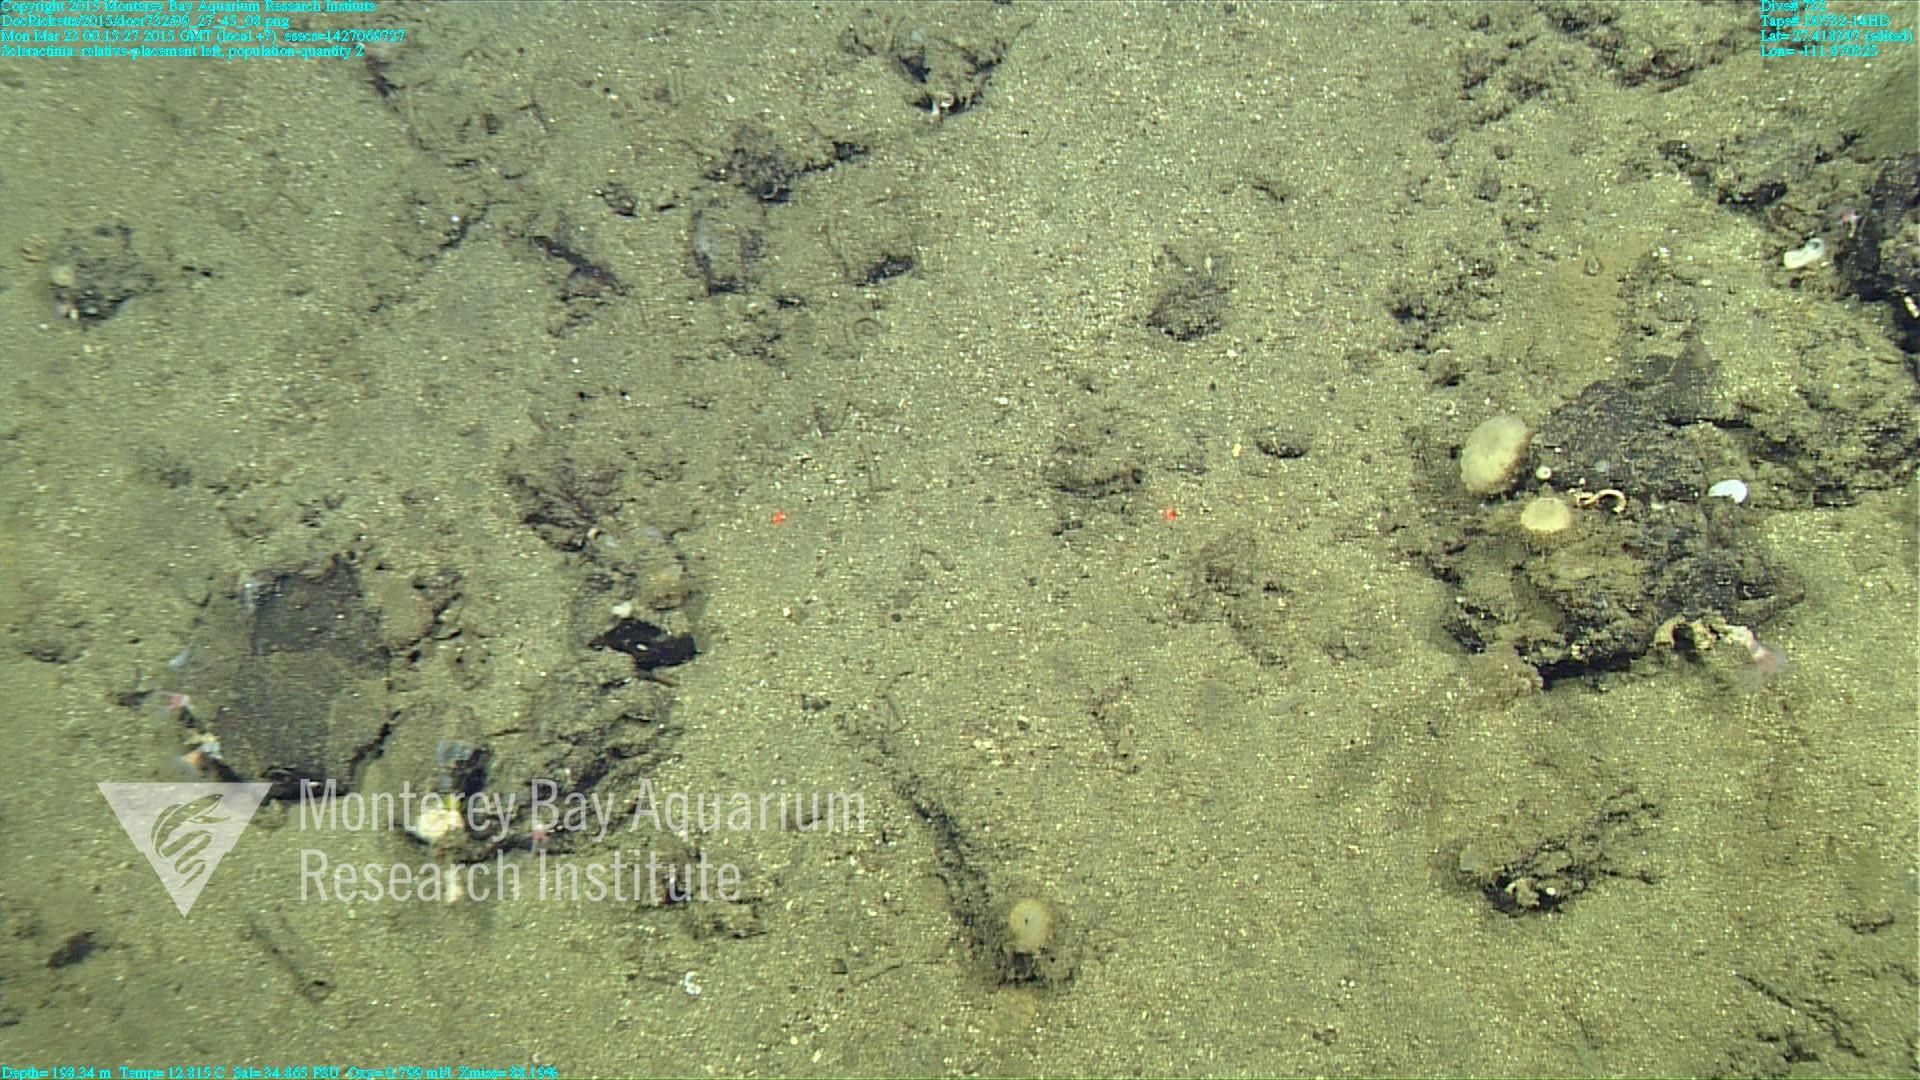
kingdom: Animalia
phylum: Cnidaria
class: Anthozoa
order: Scleractinia
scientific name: Scleractinia
